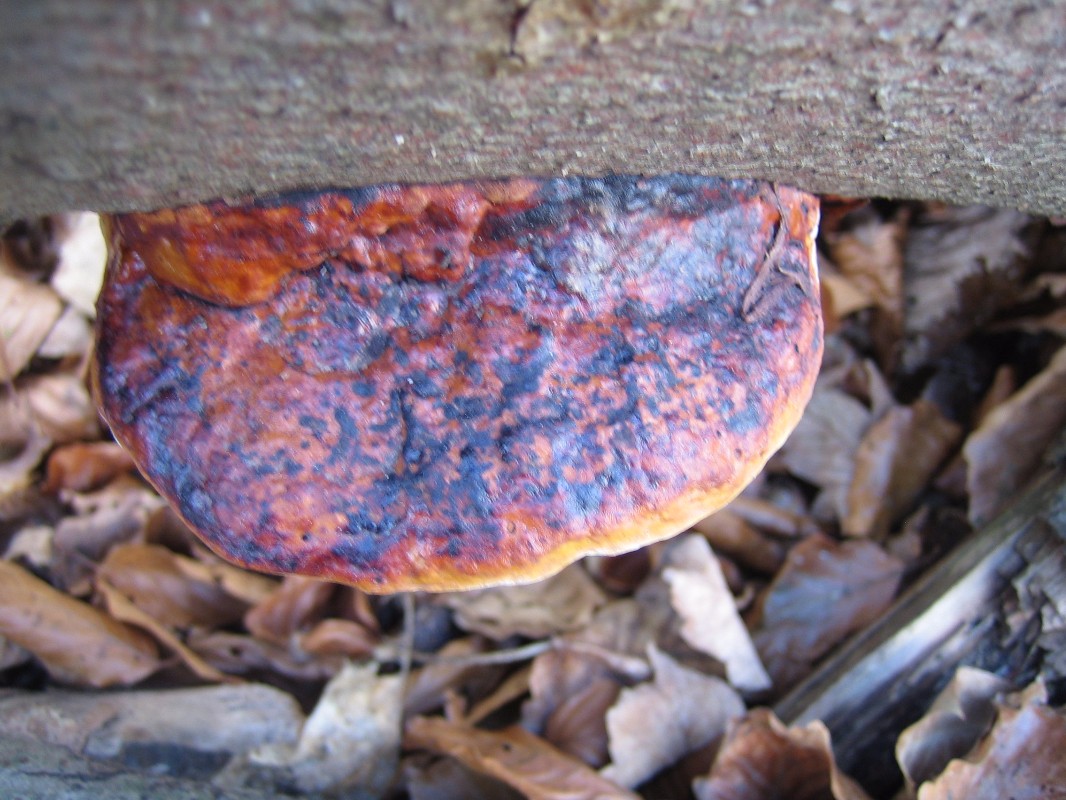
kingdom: Fungi
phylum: Basidiomycota
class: Agaricomycetes
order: Polyporales
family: Fomitopsidaceae
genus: Fomitopsis
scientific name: Fomitopsis pinicola
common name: randbæltet hovporesvamp
